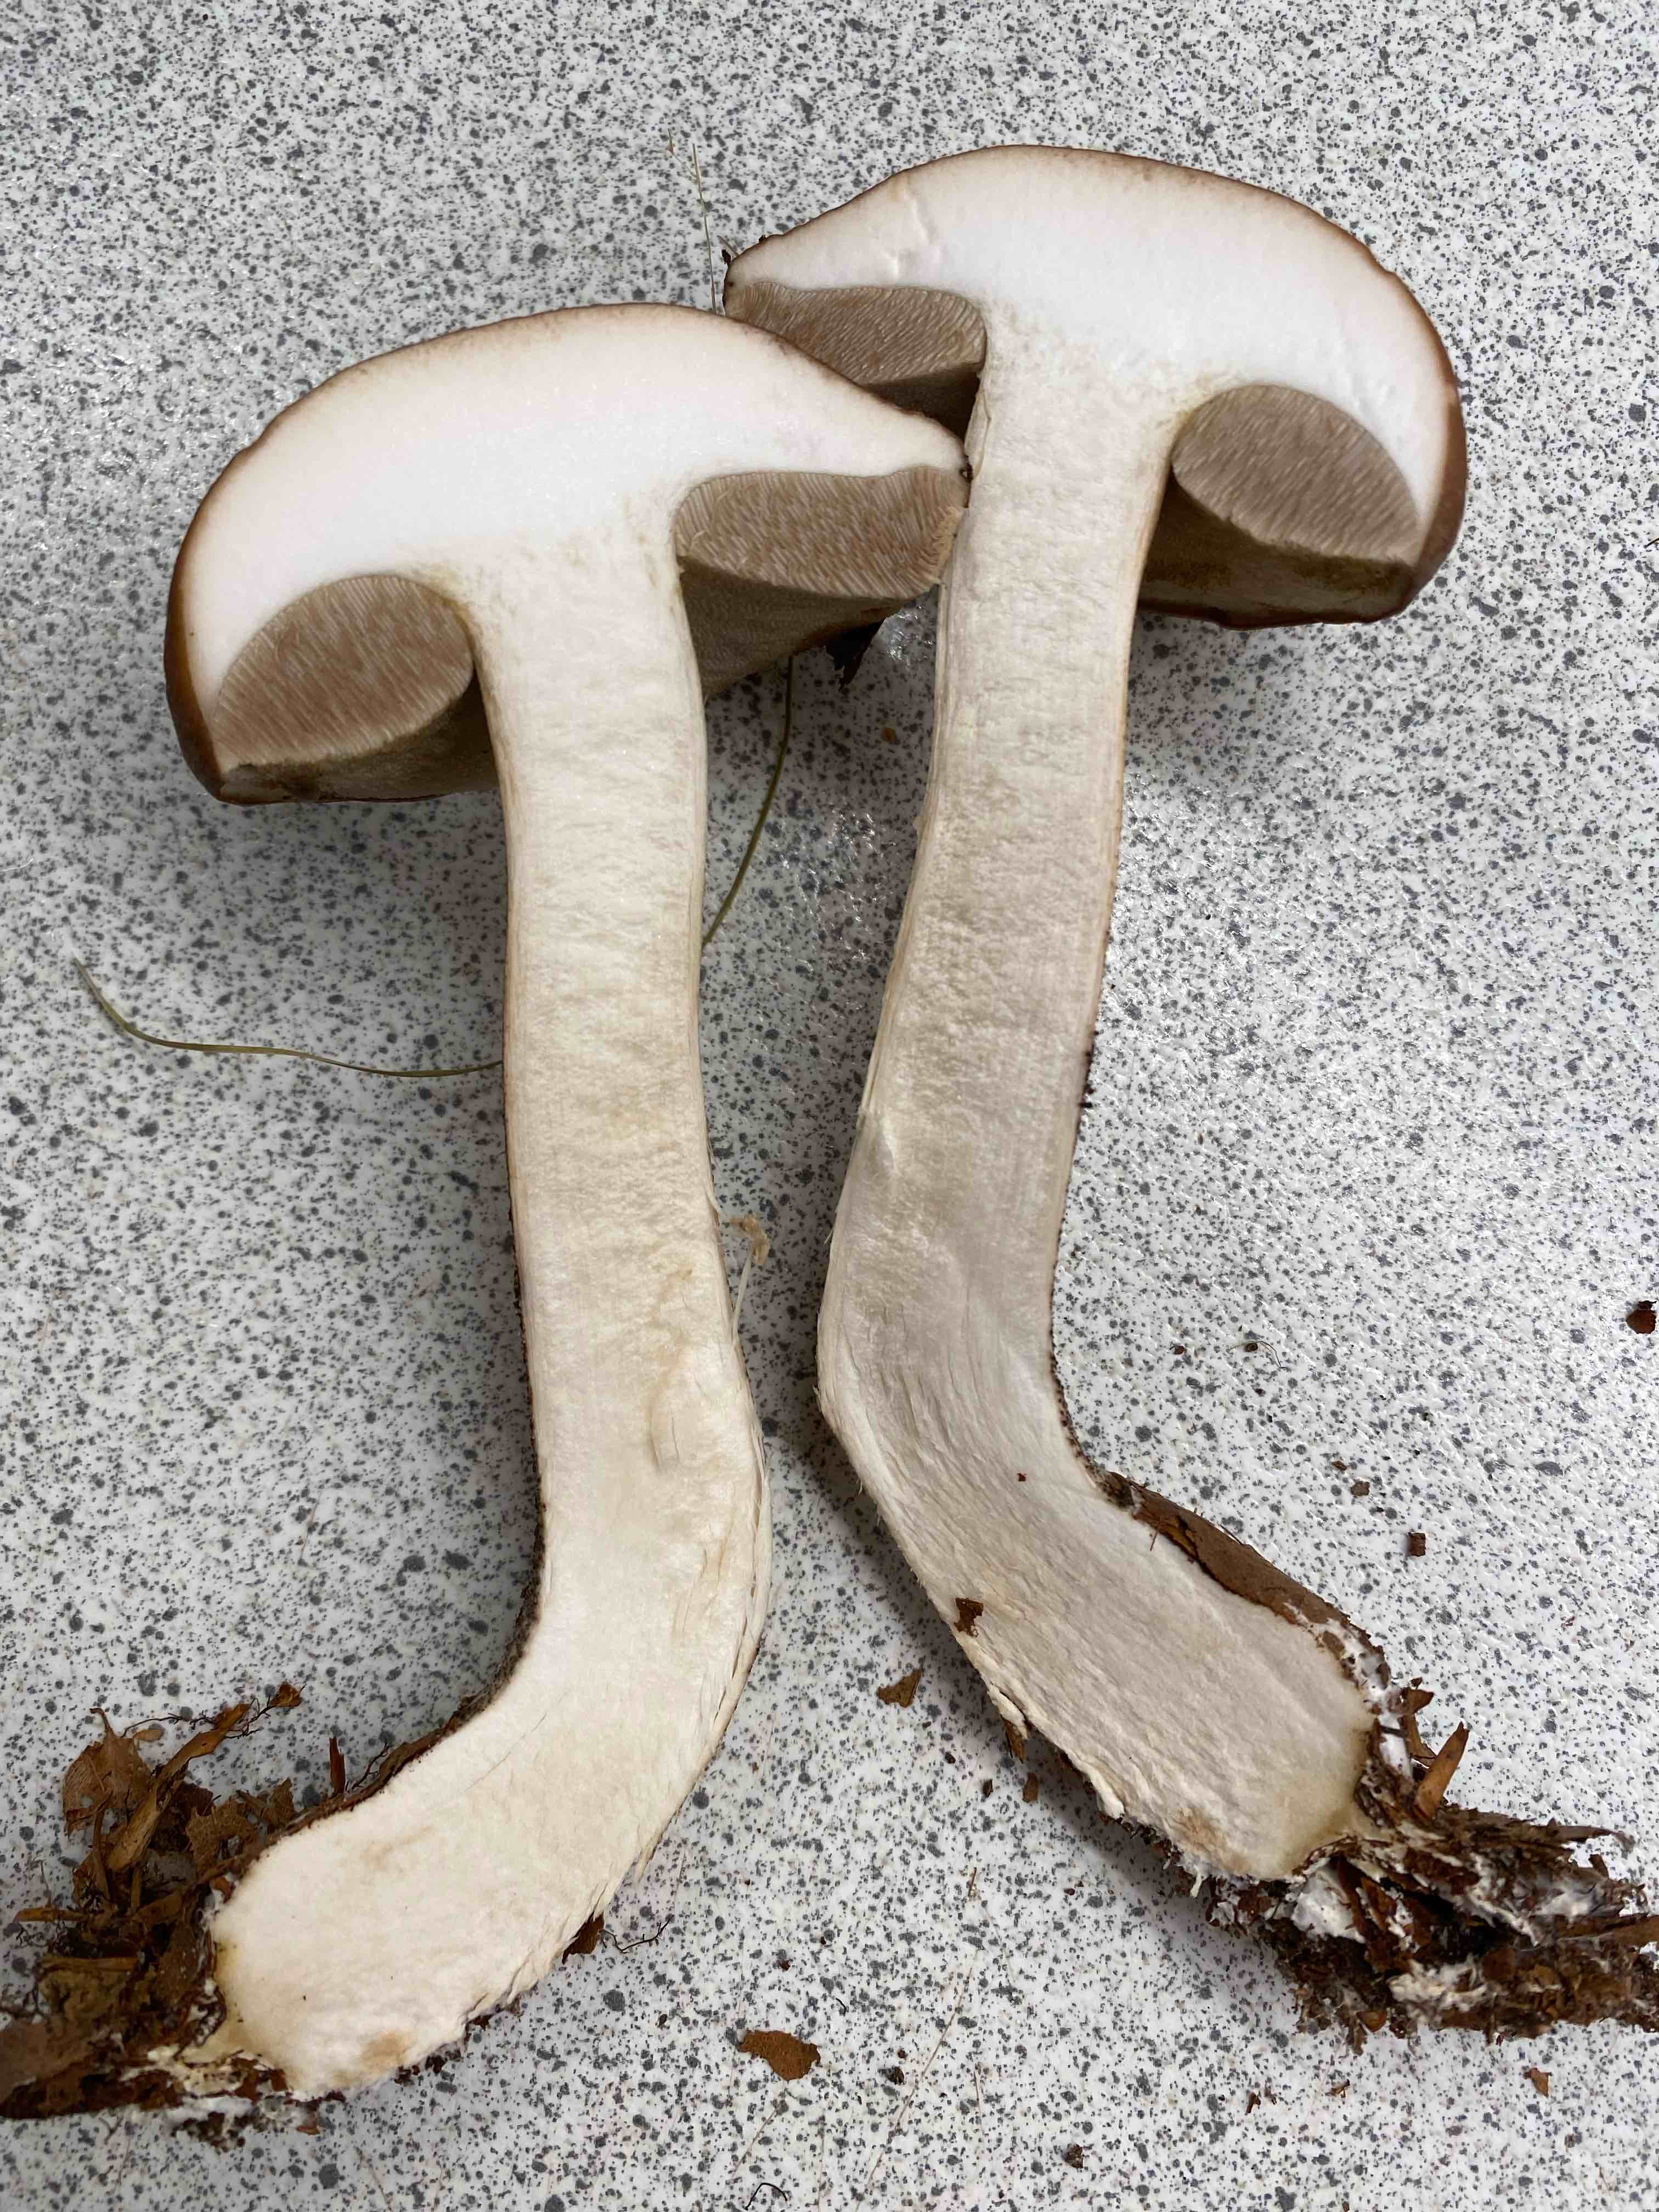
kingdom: Fungi
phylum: Basidiomycota
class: Agaricomycetes
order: Boletales
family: Boletaceae
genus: Leccinum
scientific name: Leccinum scabrum
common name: brun skælrørhat
